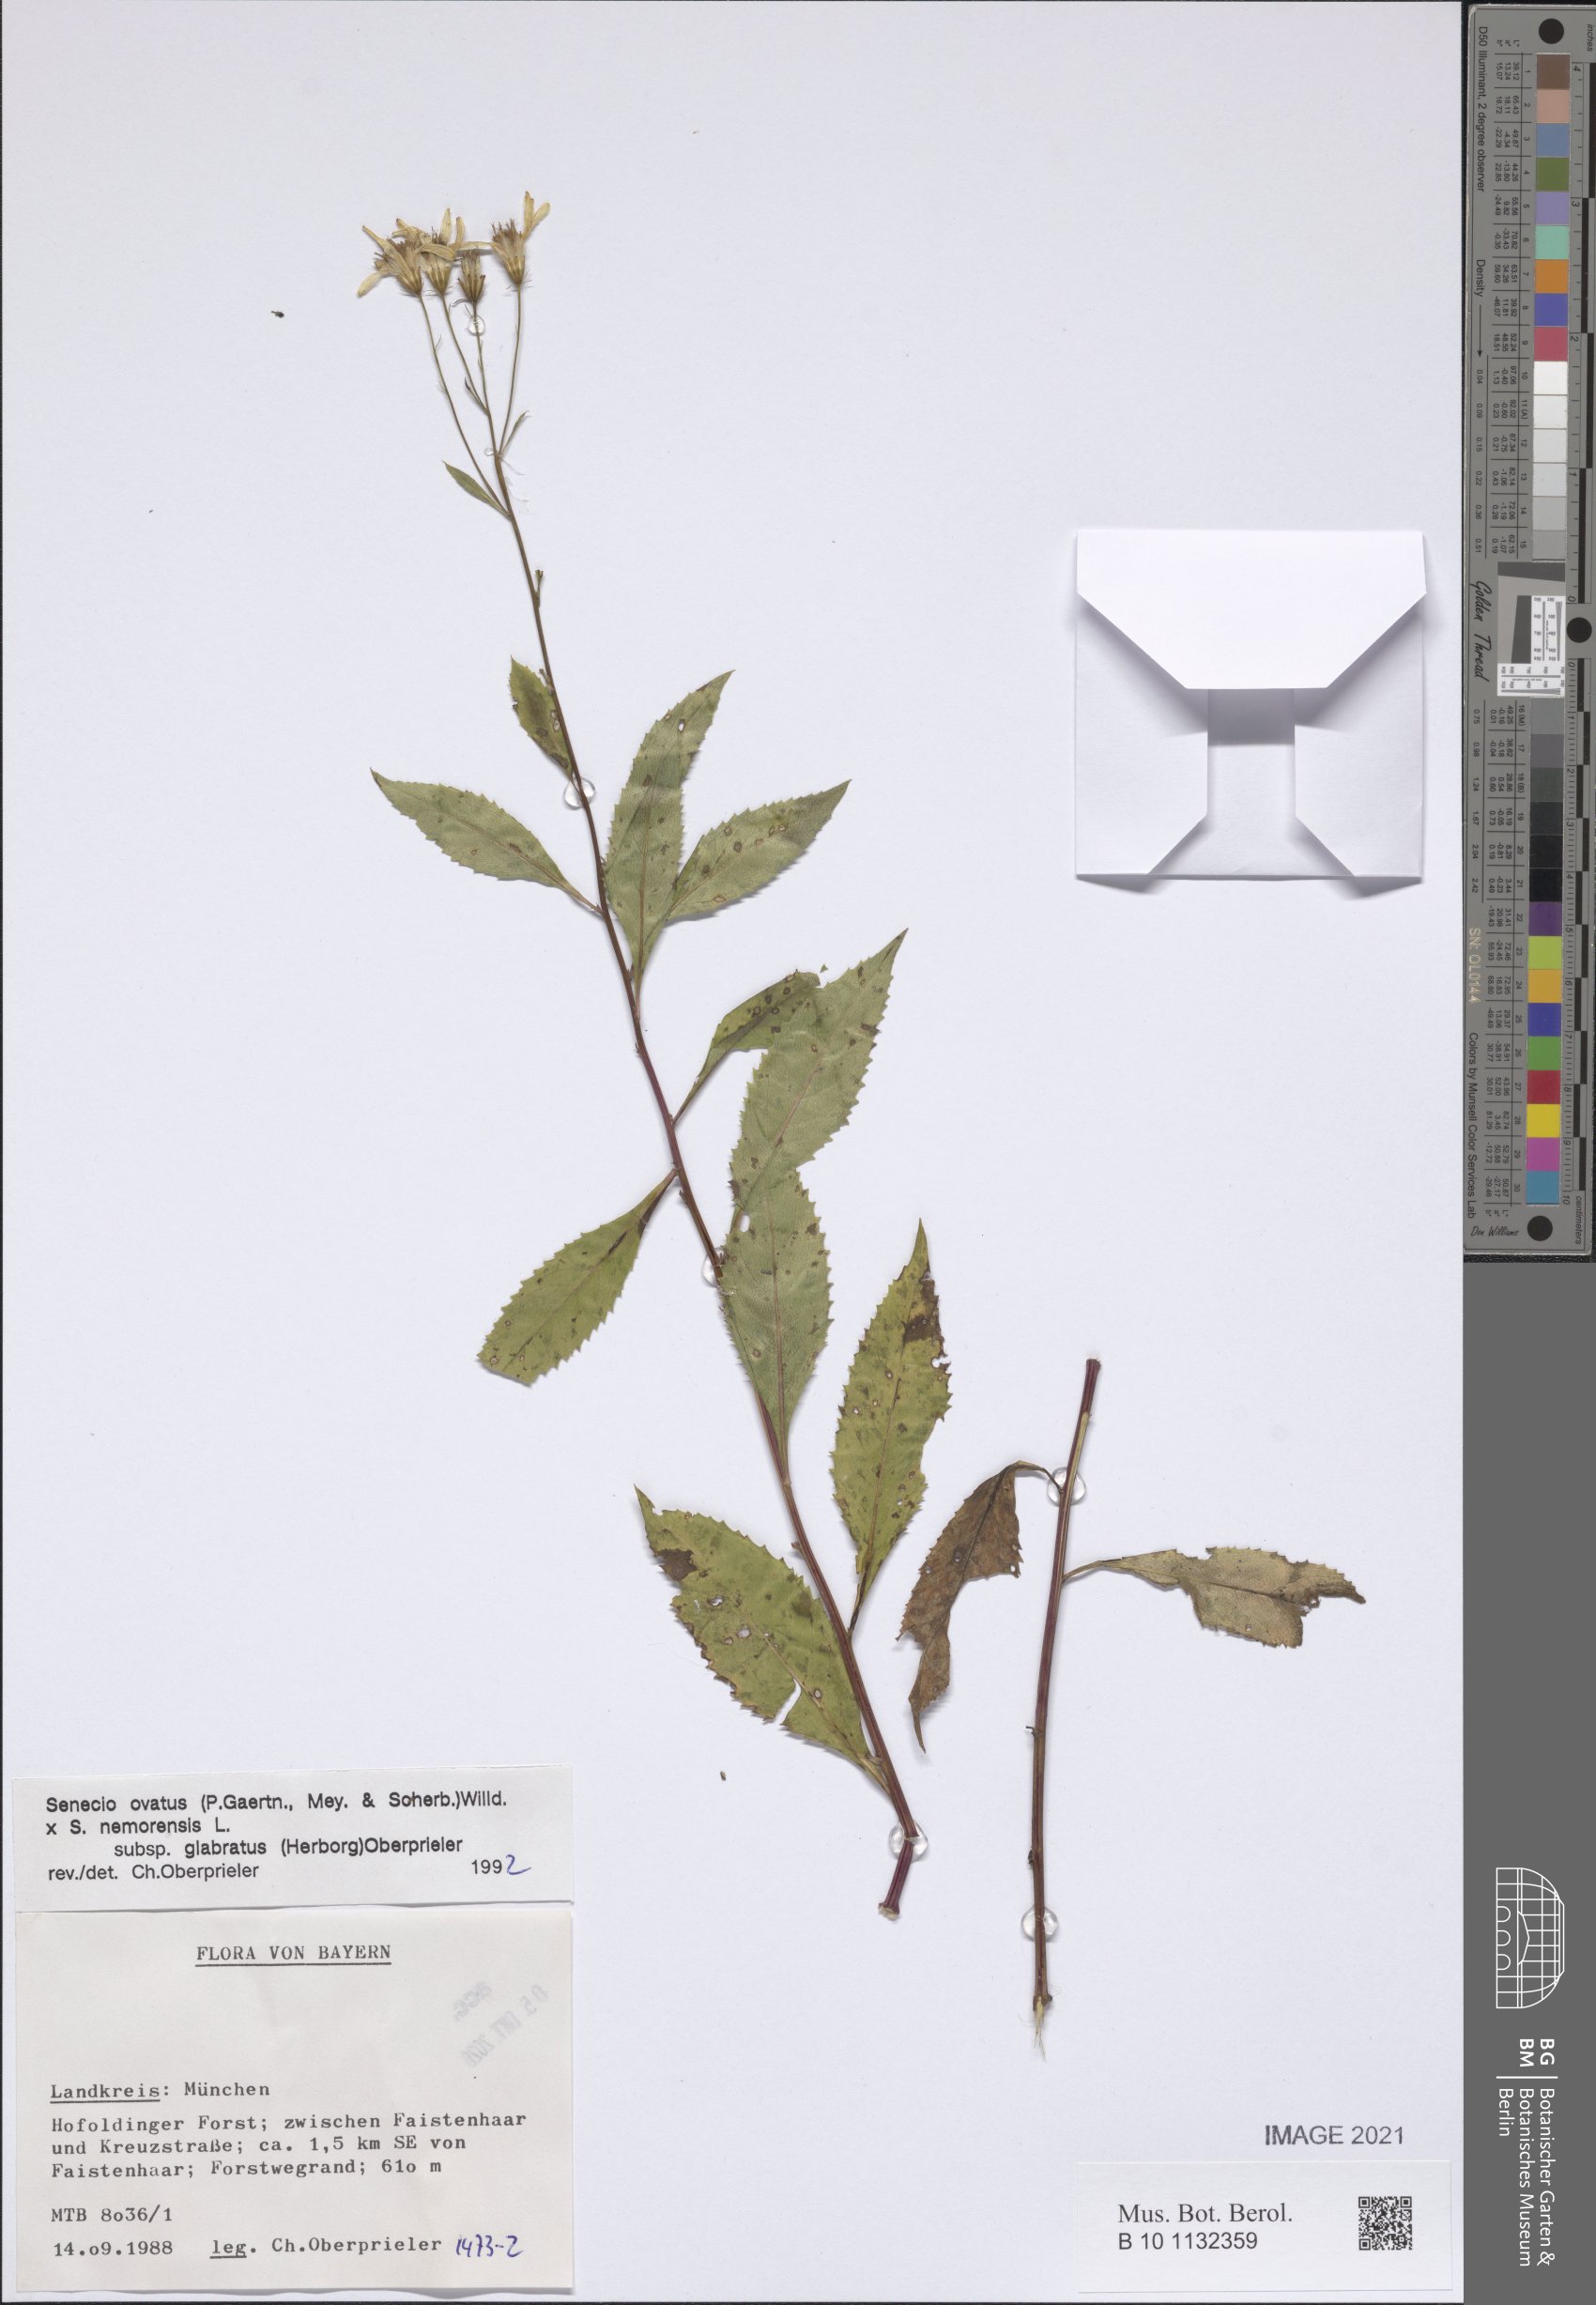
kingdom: Plantae
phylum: Tracheophyta
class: Magnoliopsida
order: Asterales
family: Asteraceae
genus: Senecio
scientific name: Senecio ovatus
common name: Wood ragwort
